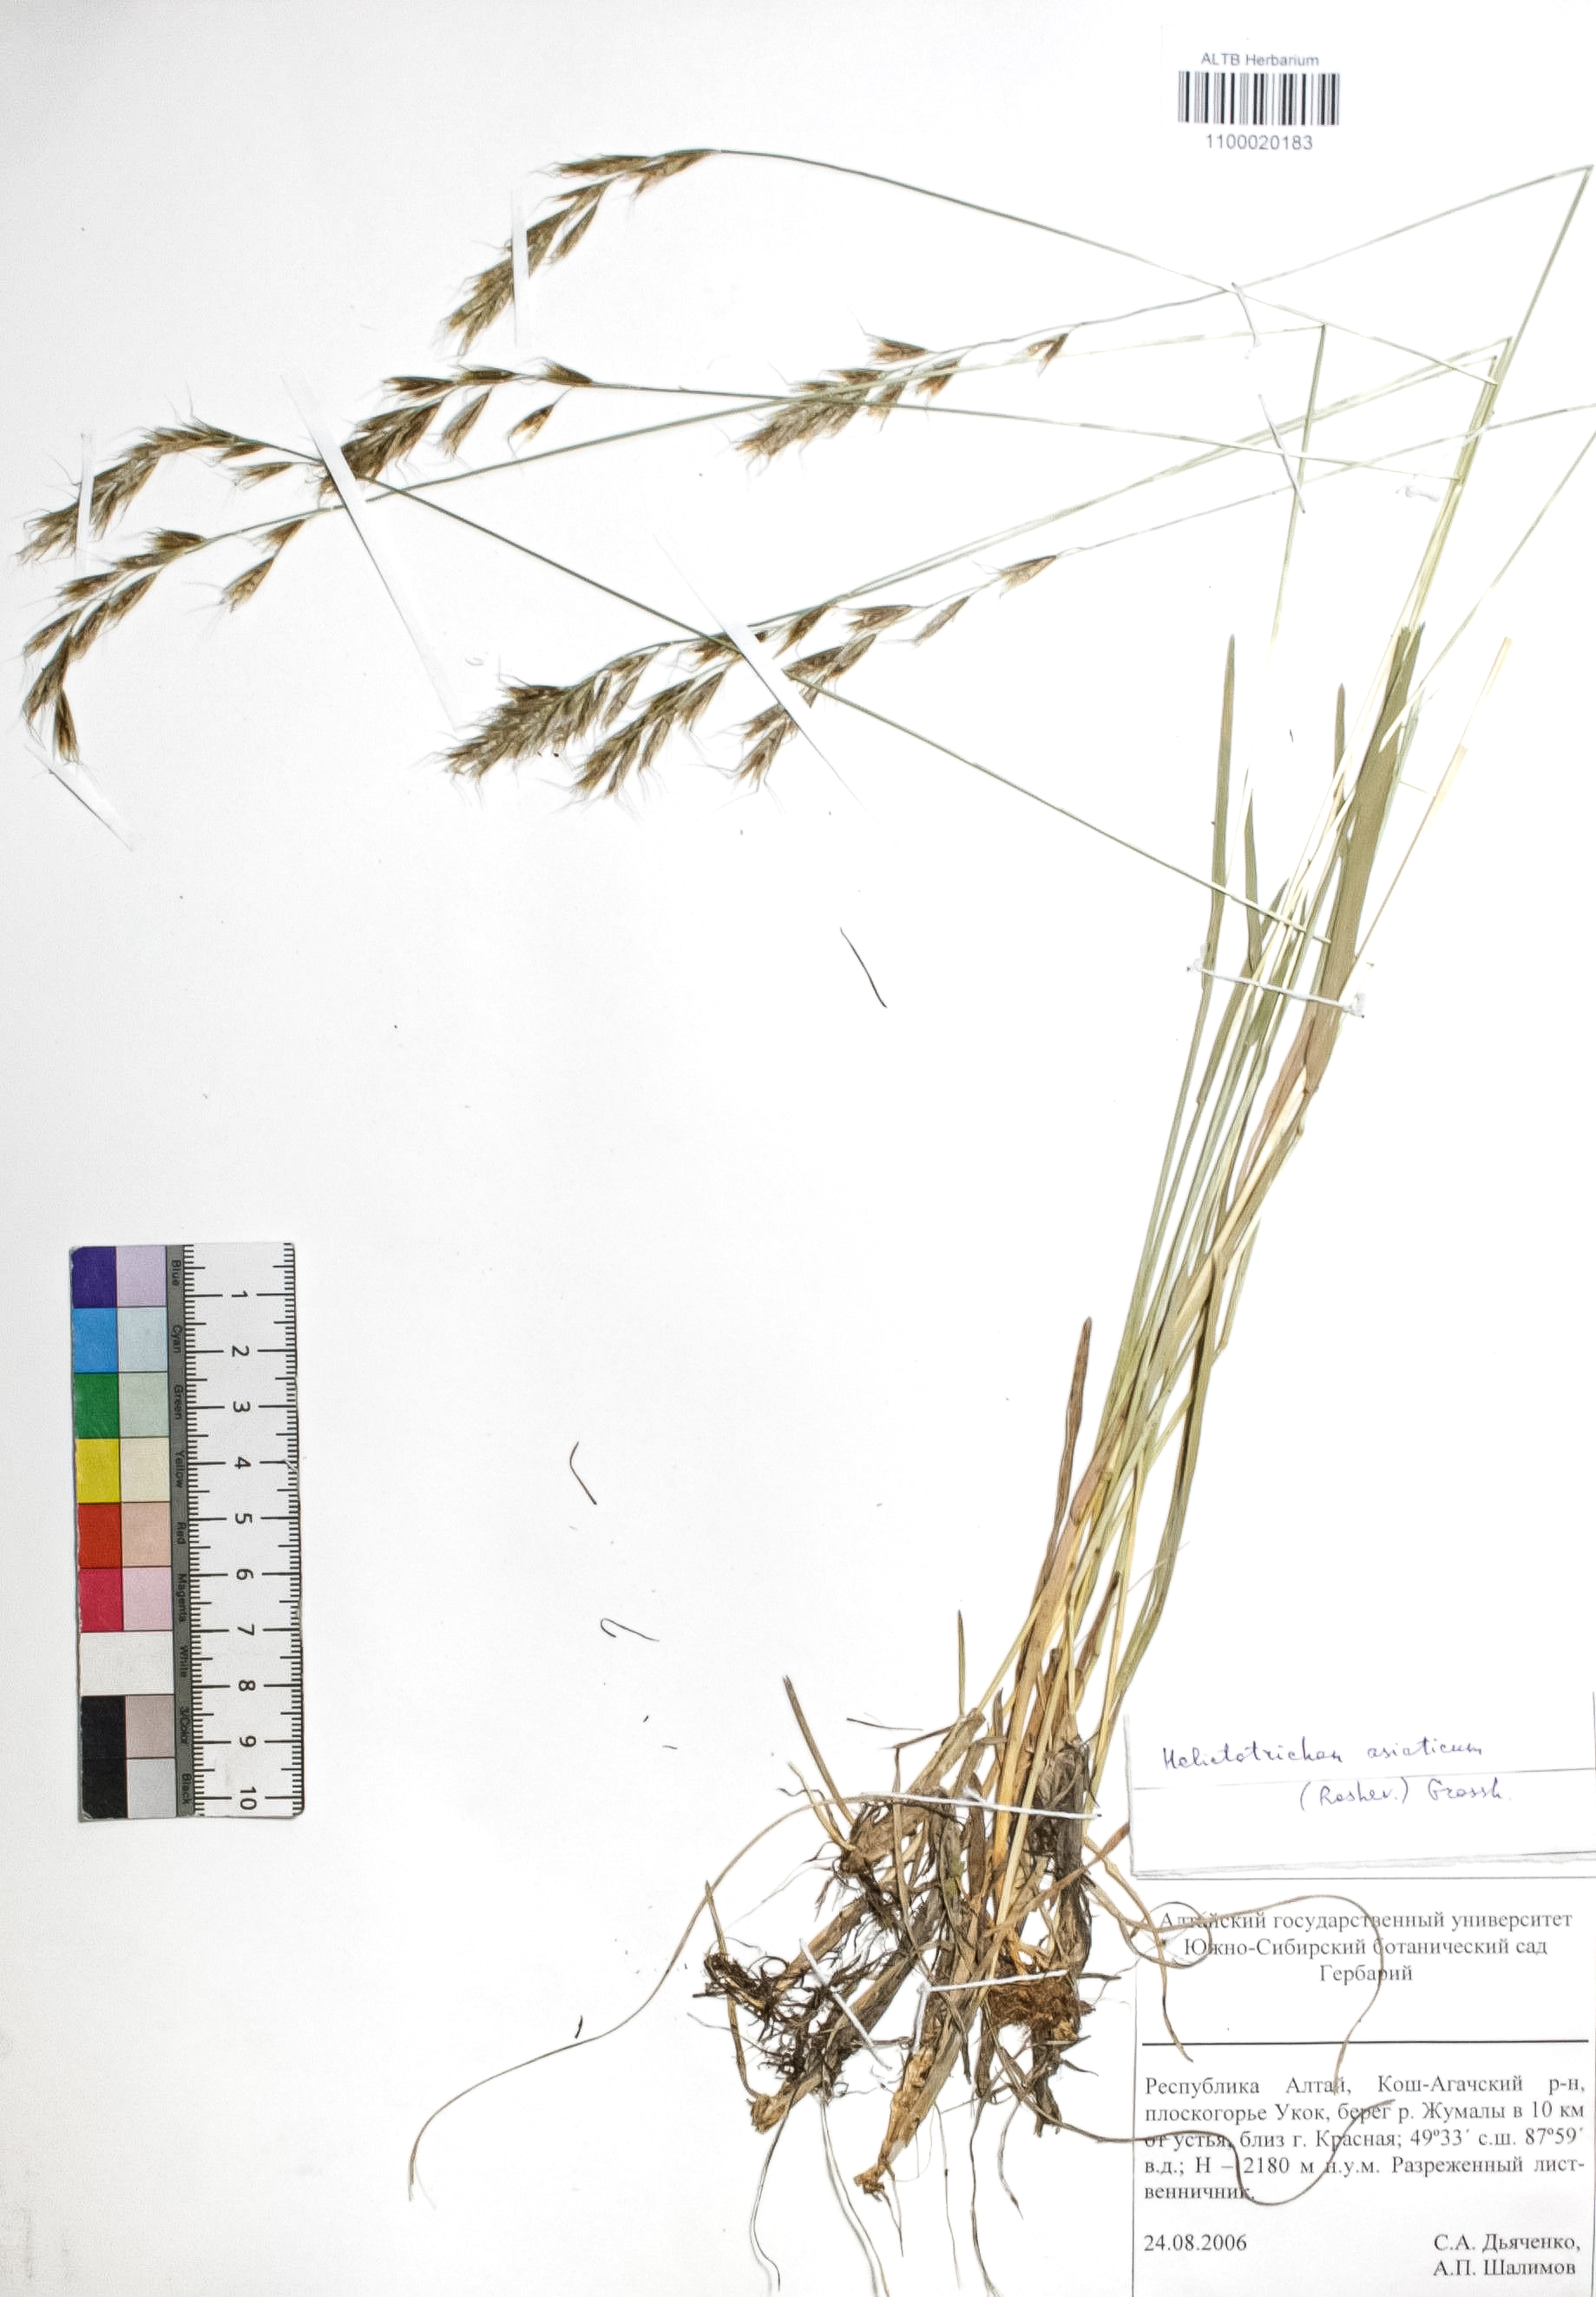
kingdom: Plantae
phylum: Tracheophyta
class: Liliopsida
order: Poales
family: Poaceae
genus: Helictochloa
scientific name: Helictochloa hookeri
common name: Hooker's alpine oatgrass
